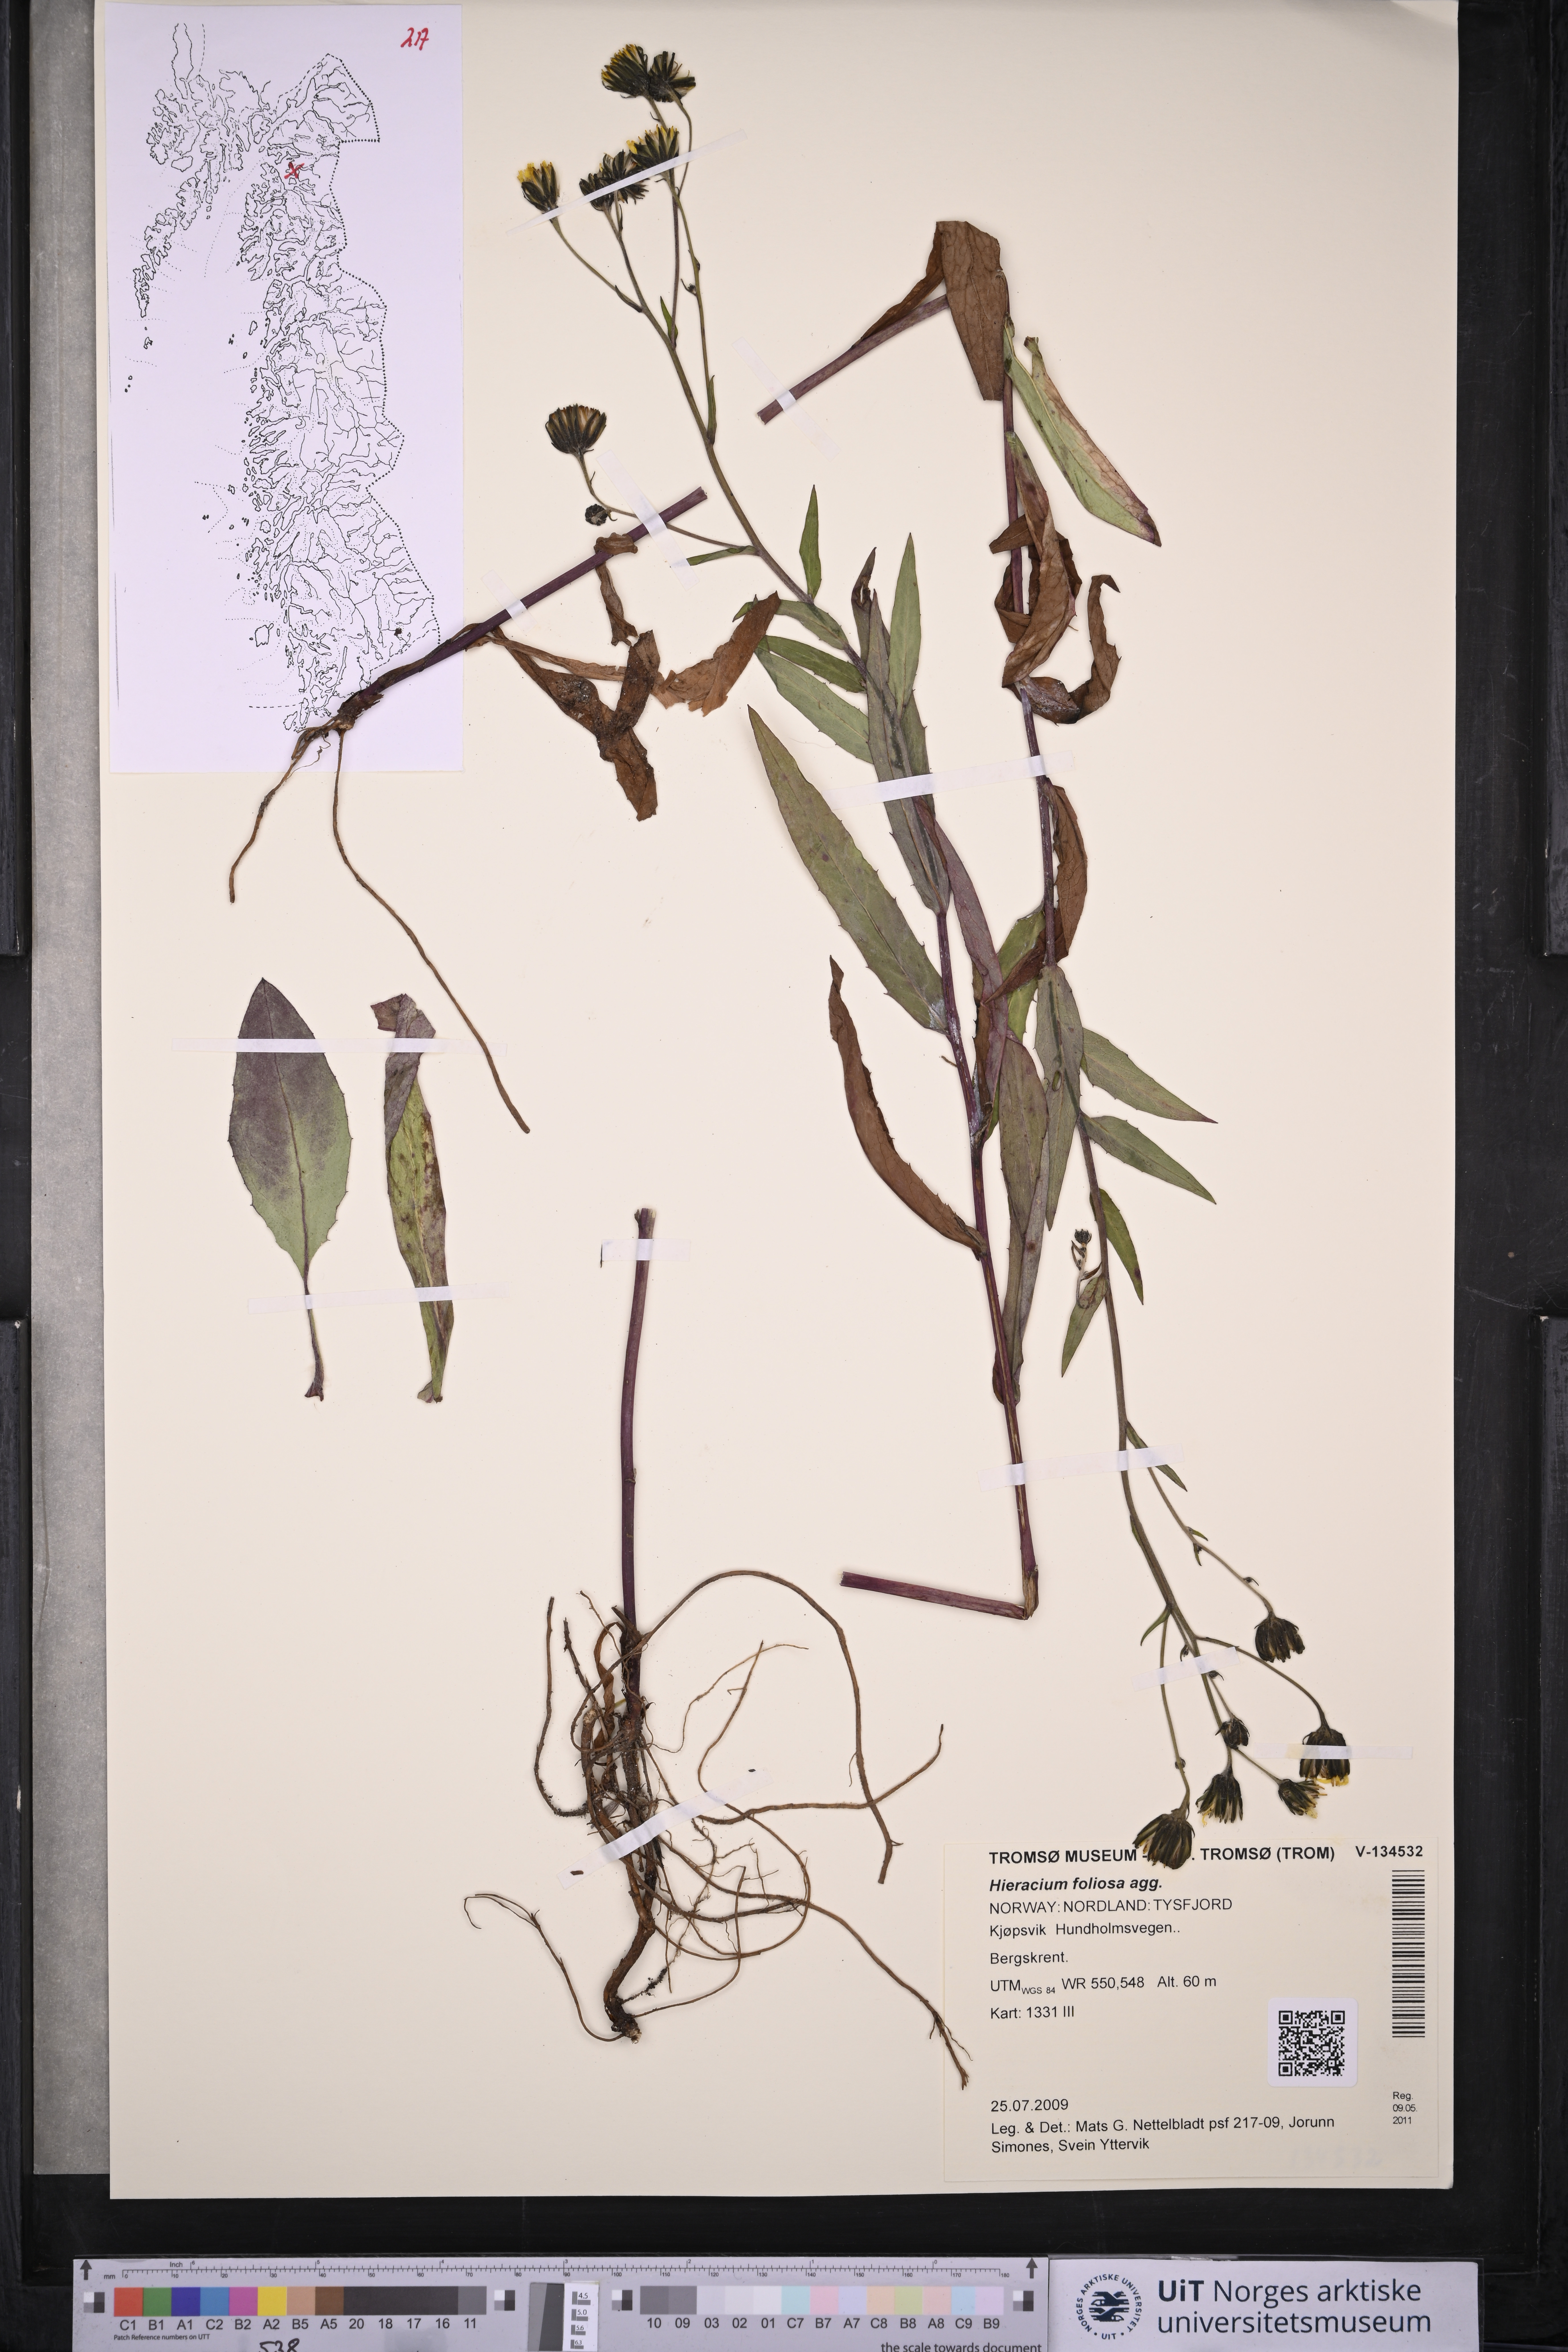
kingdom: Plantae
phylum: Tracheophyta
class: Magnoliopsida
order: Asterales
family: Asteraceae
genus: Hieracium
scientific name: Hieracium
